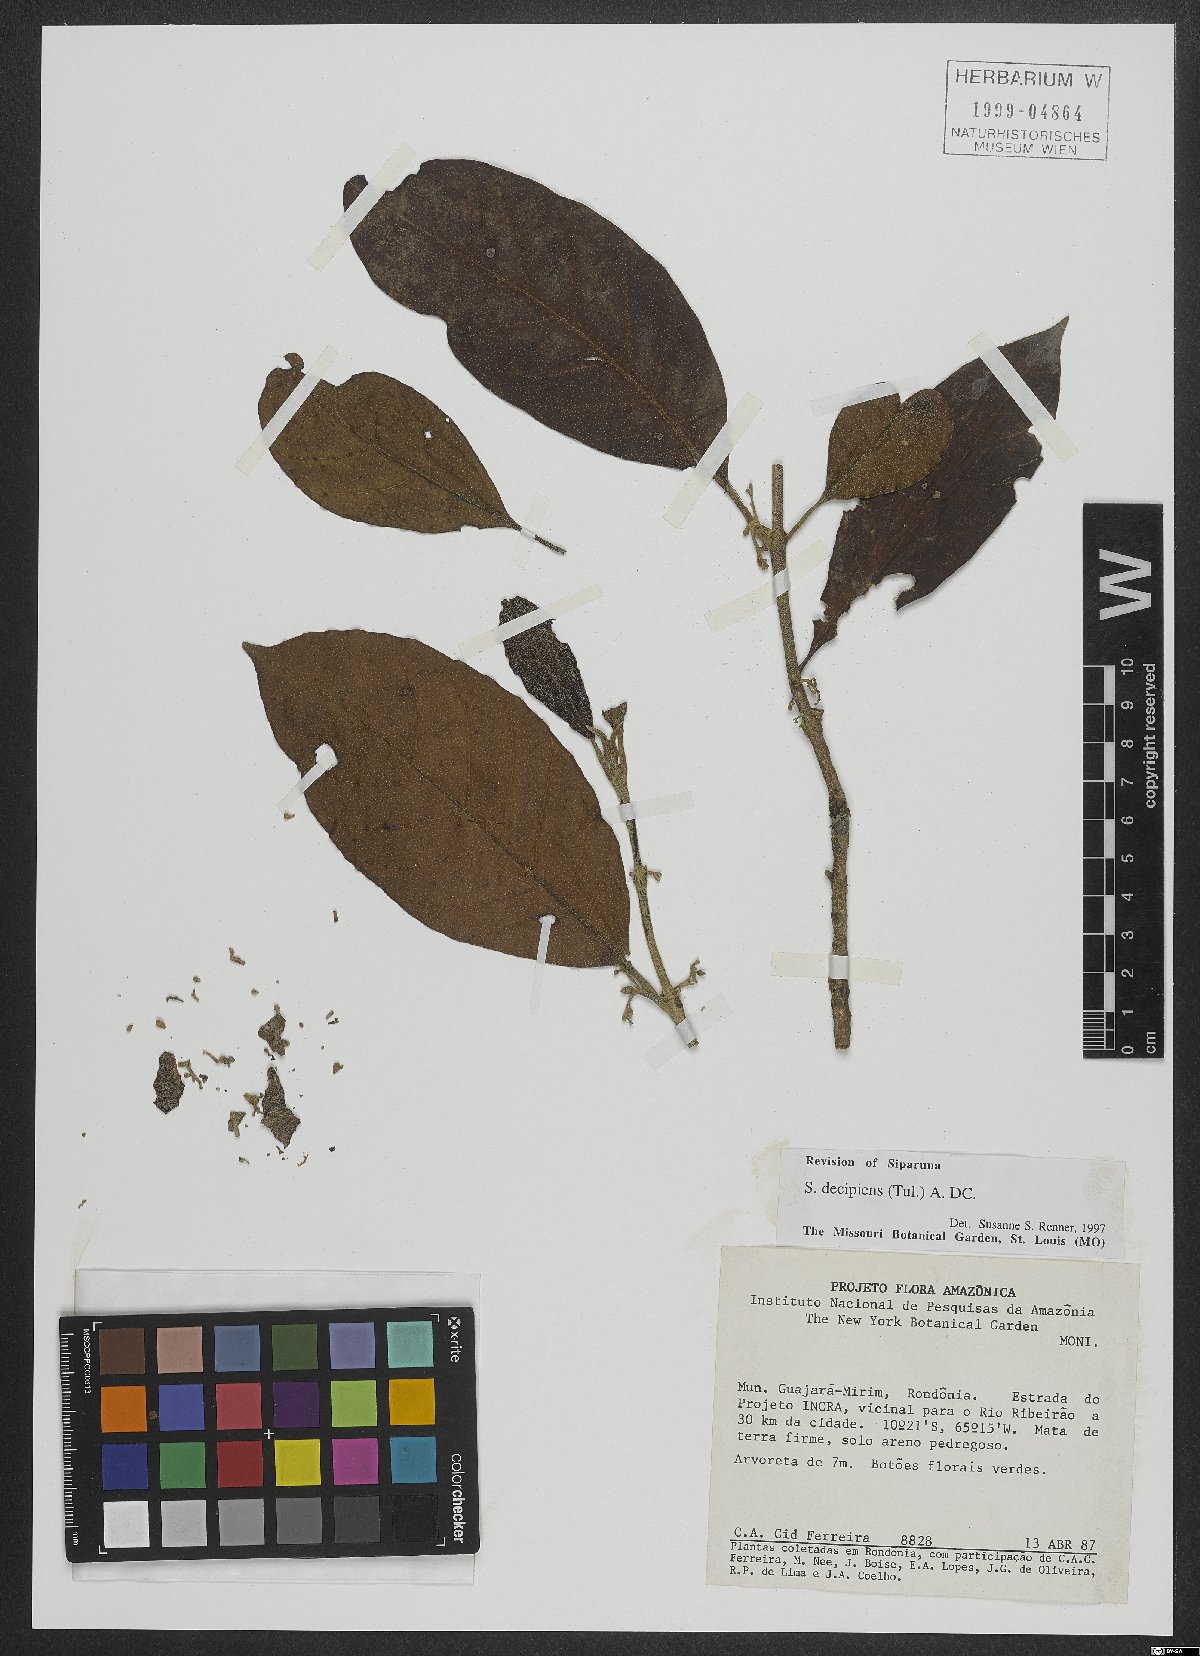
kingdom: Plantae
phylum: Tracheophyta
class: Magnoliopsida
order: Laurales
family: Siparunaceae
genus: Siparuna
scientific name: Siparuna decipiens
